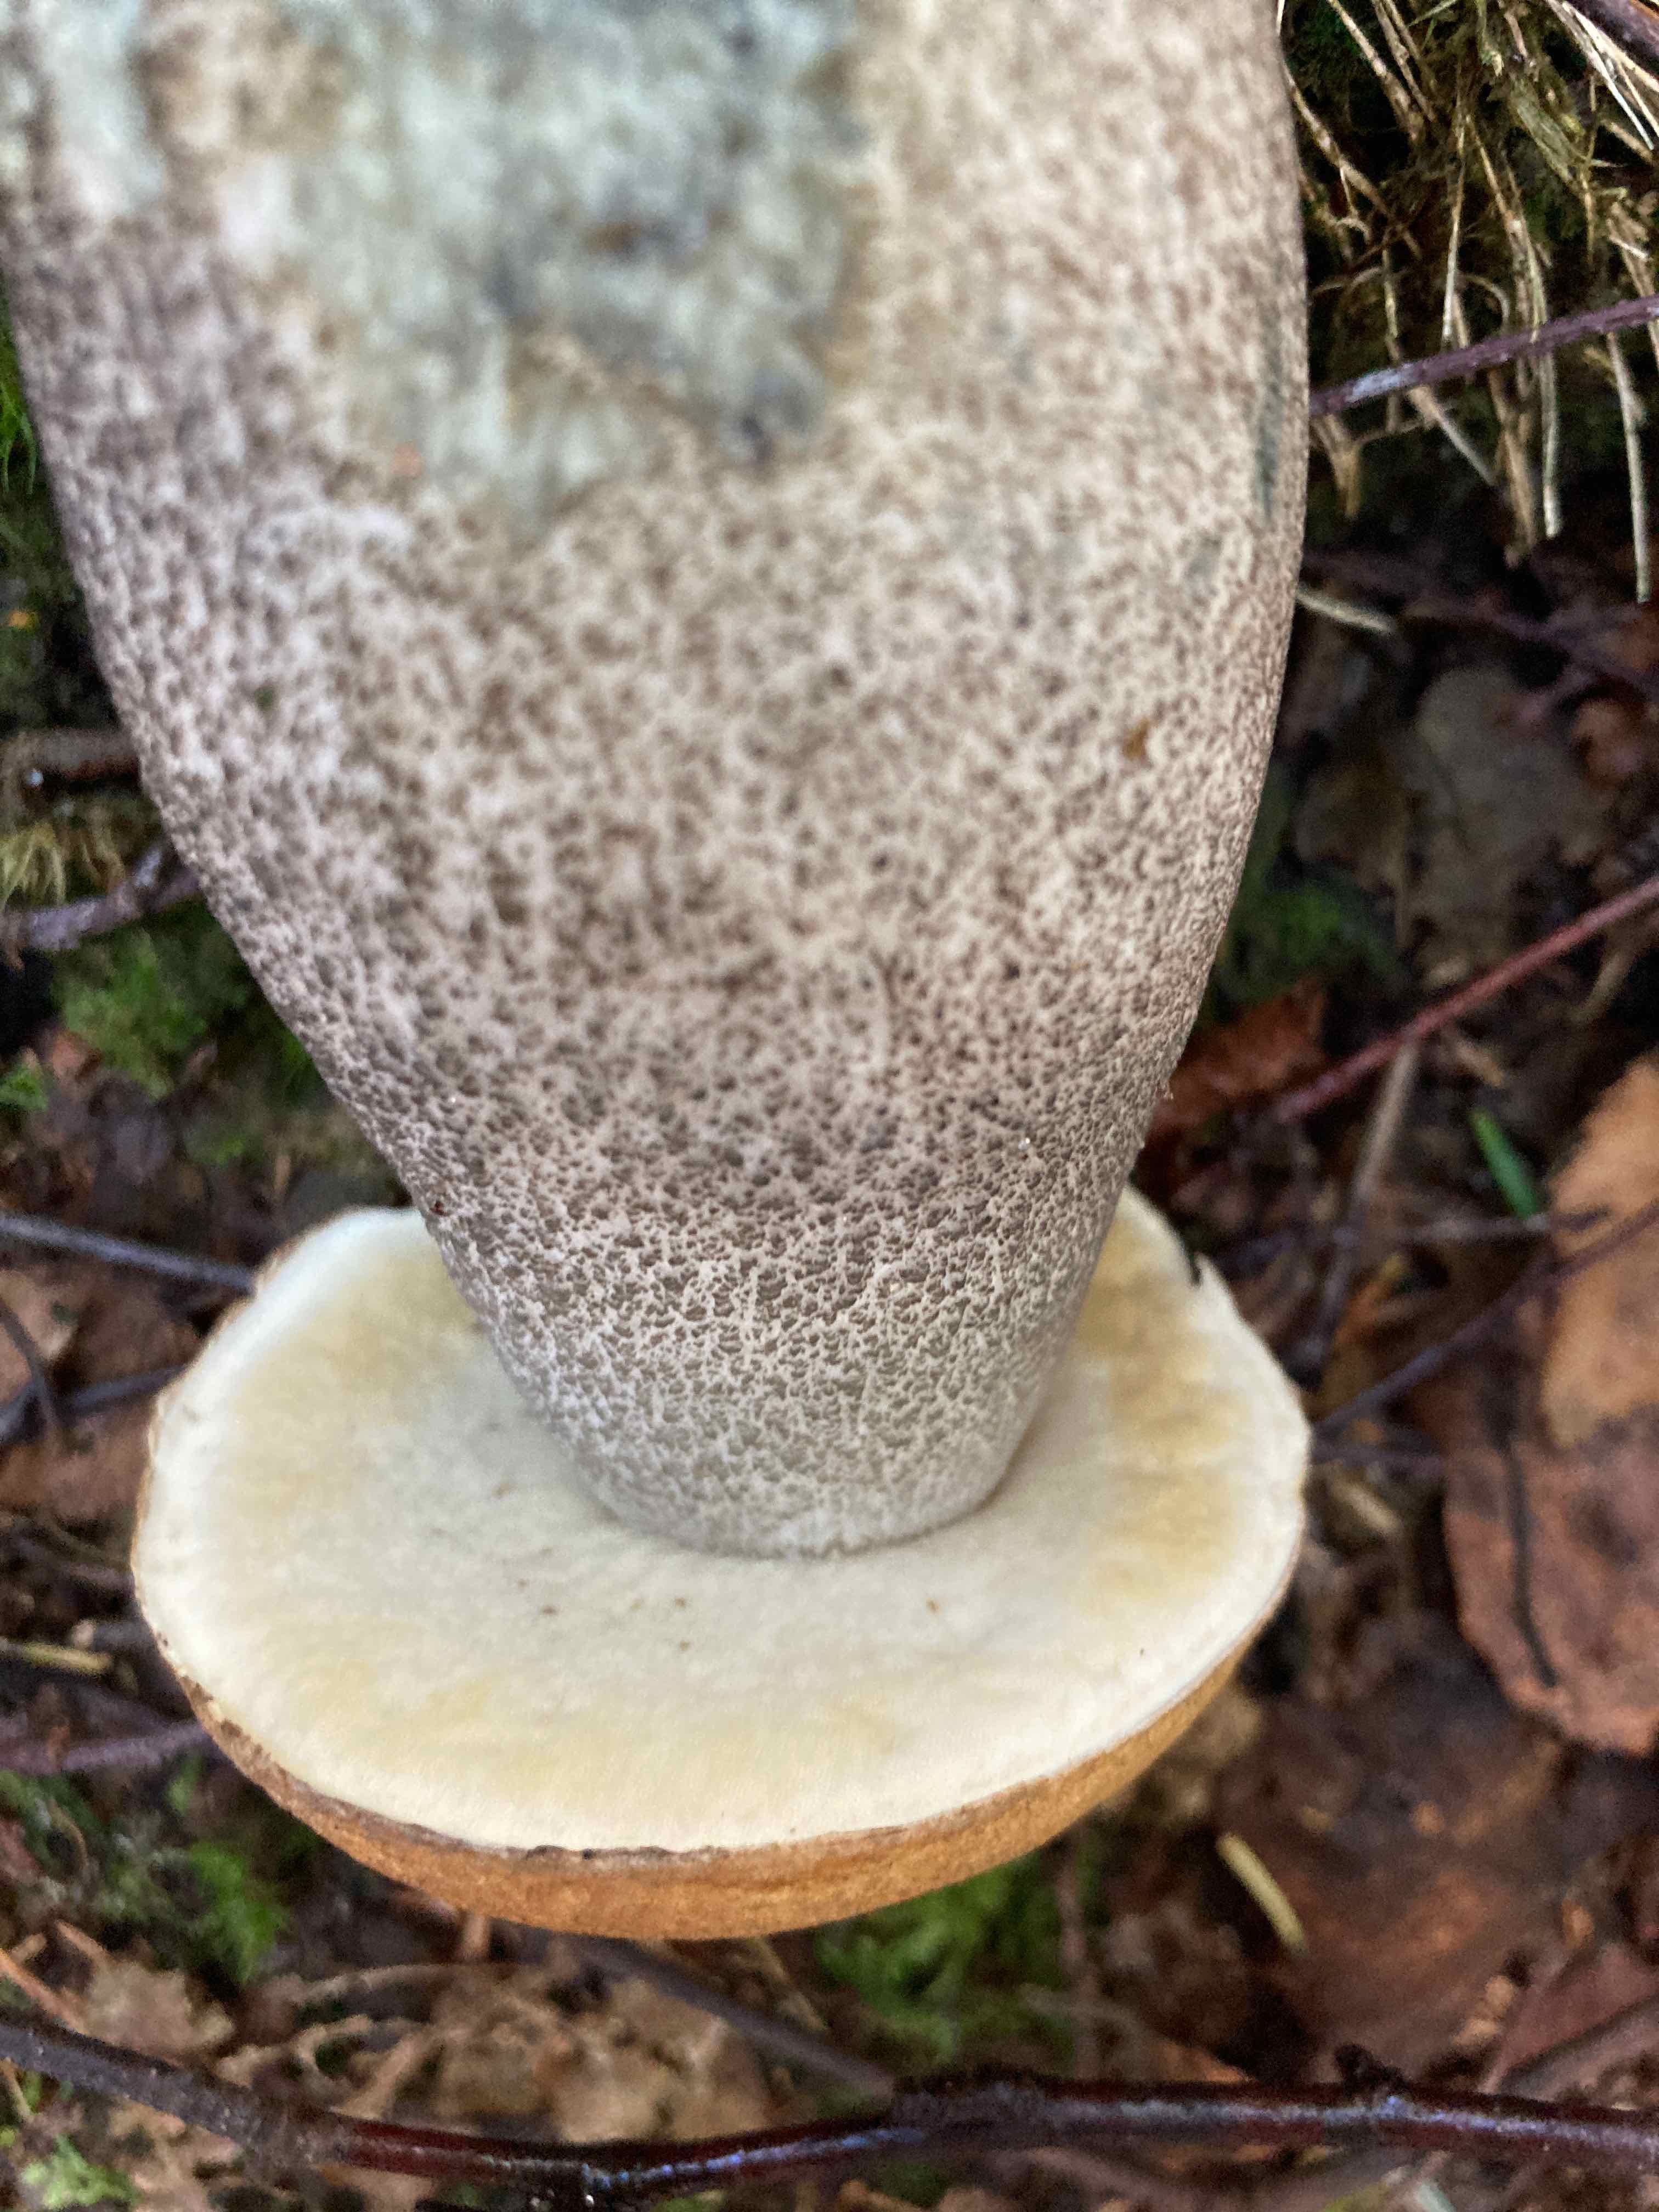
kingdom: Fungi
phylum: Basidiomycota
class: Agaricomycetes
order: Boletales
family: Boletaceae
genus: Leccinum
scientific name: Leccinum versipelle
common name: orange skælrørhat
